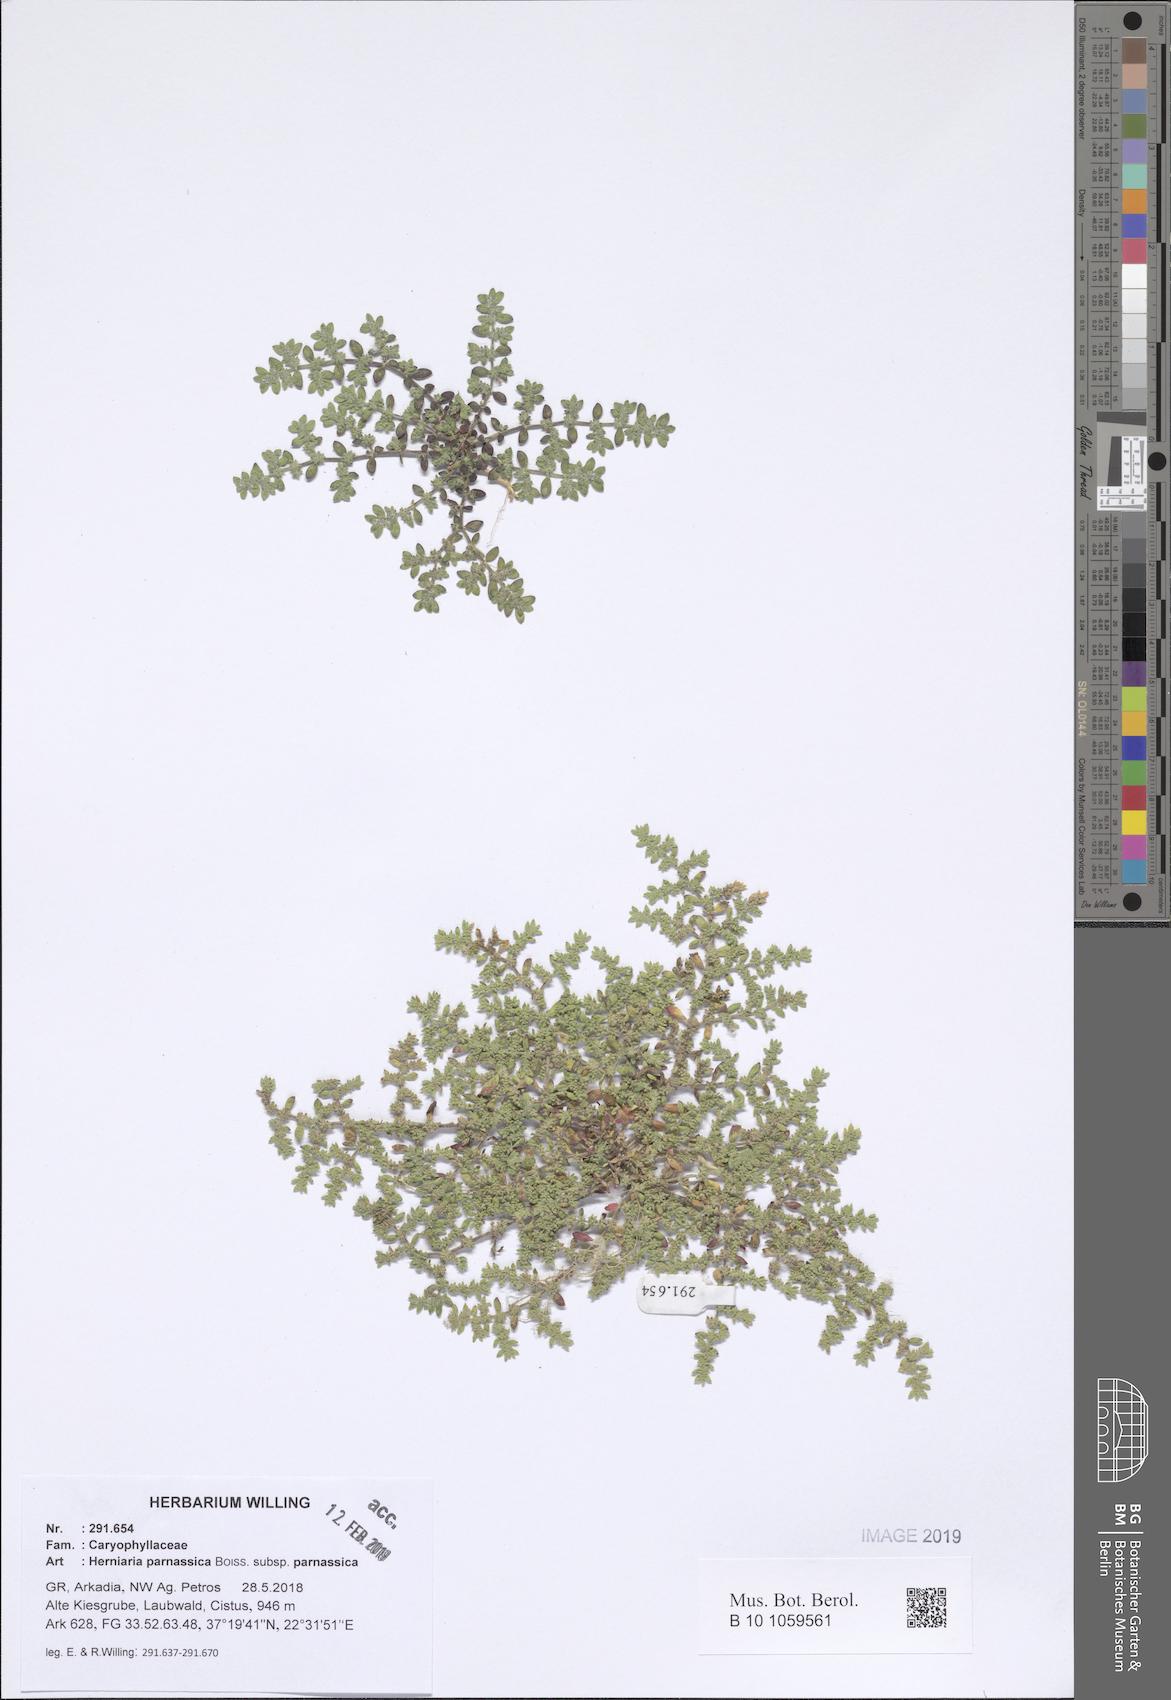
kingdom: Plantae
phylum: Tracheophyta
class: Magnoliopsida
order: Caryophyllales
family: Caryophyllaceae
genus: Herniaria
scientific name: Herniaria parnassica
